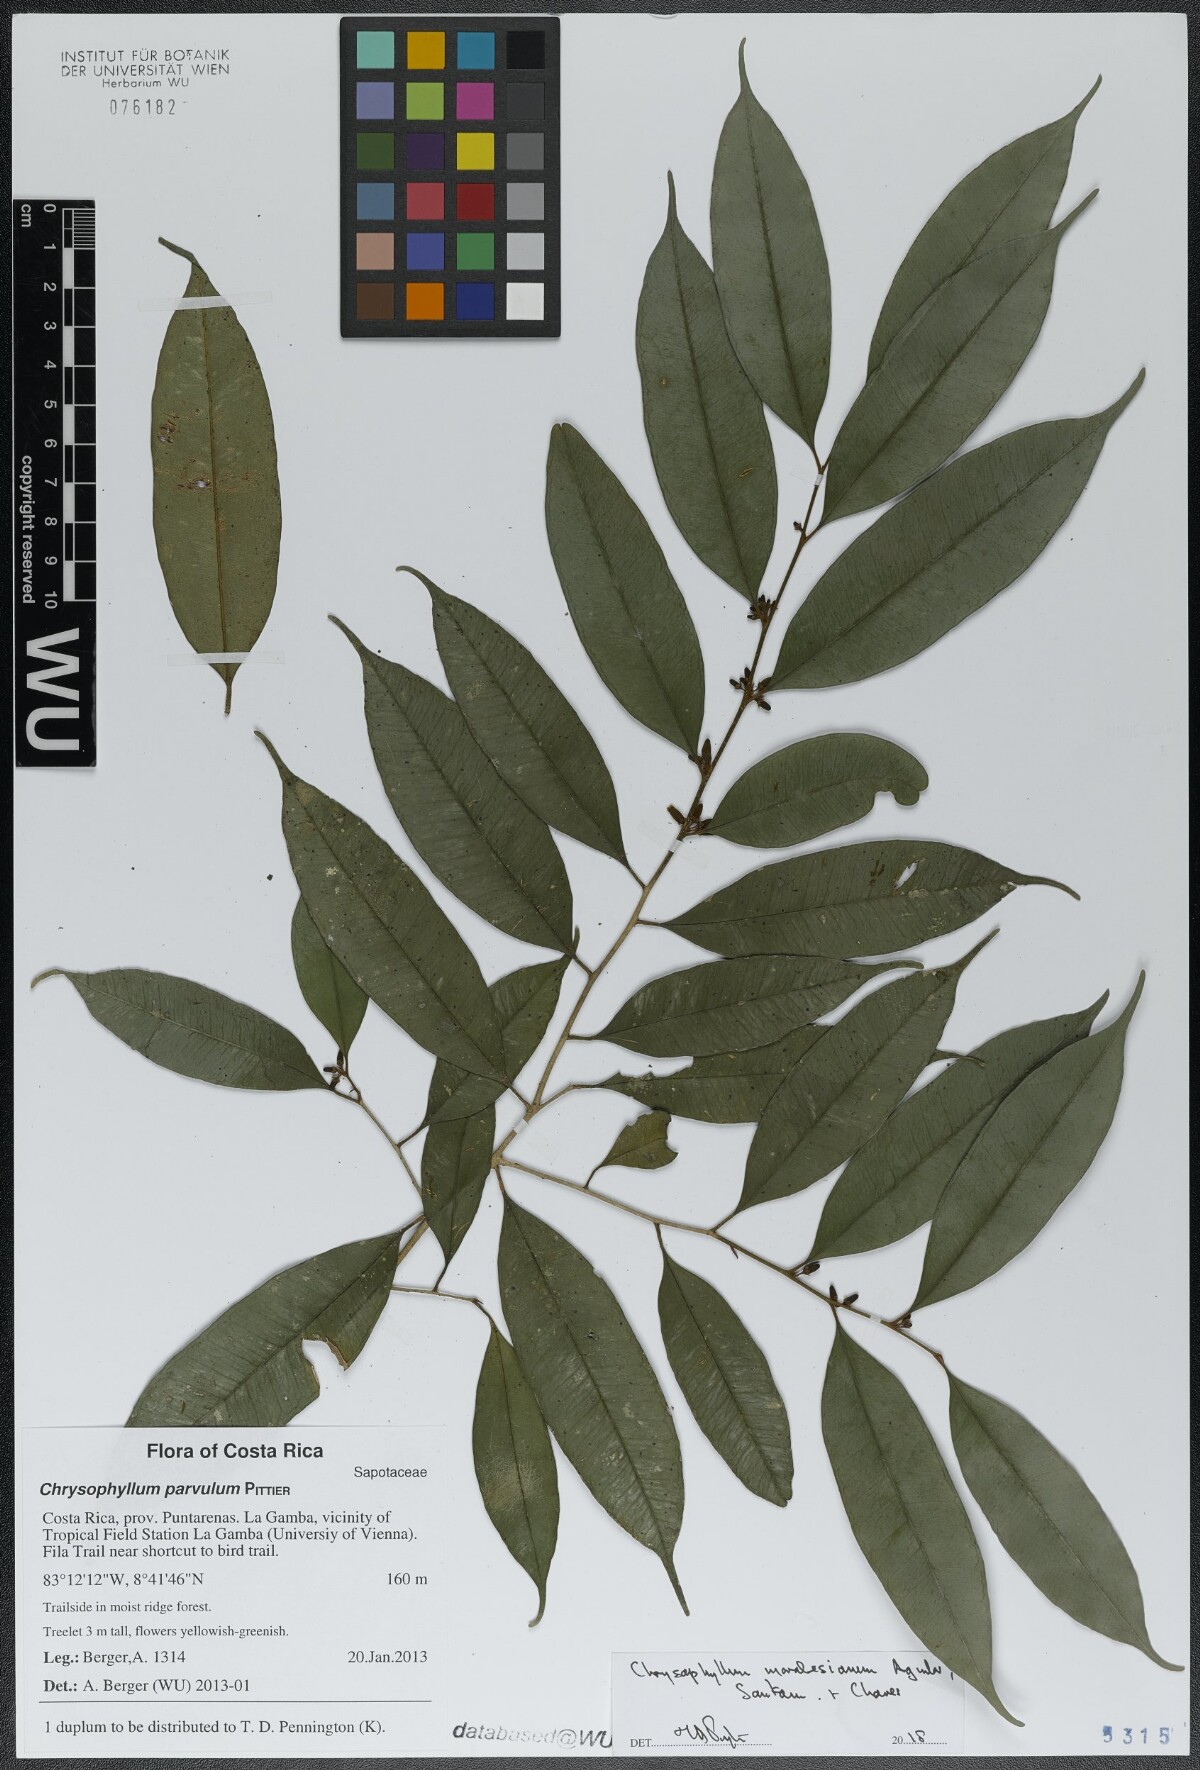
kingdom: Plantae
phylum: Tracheophyta
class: Magnoliopsida
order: Ericales
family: Sapotaceae
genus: Chrysophyllum
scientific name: Chrysophyllum moralesianum
